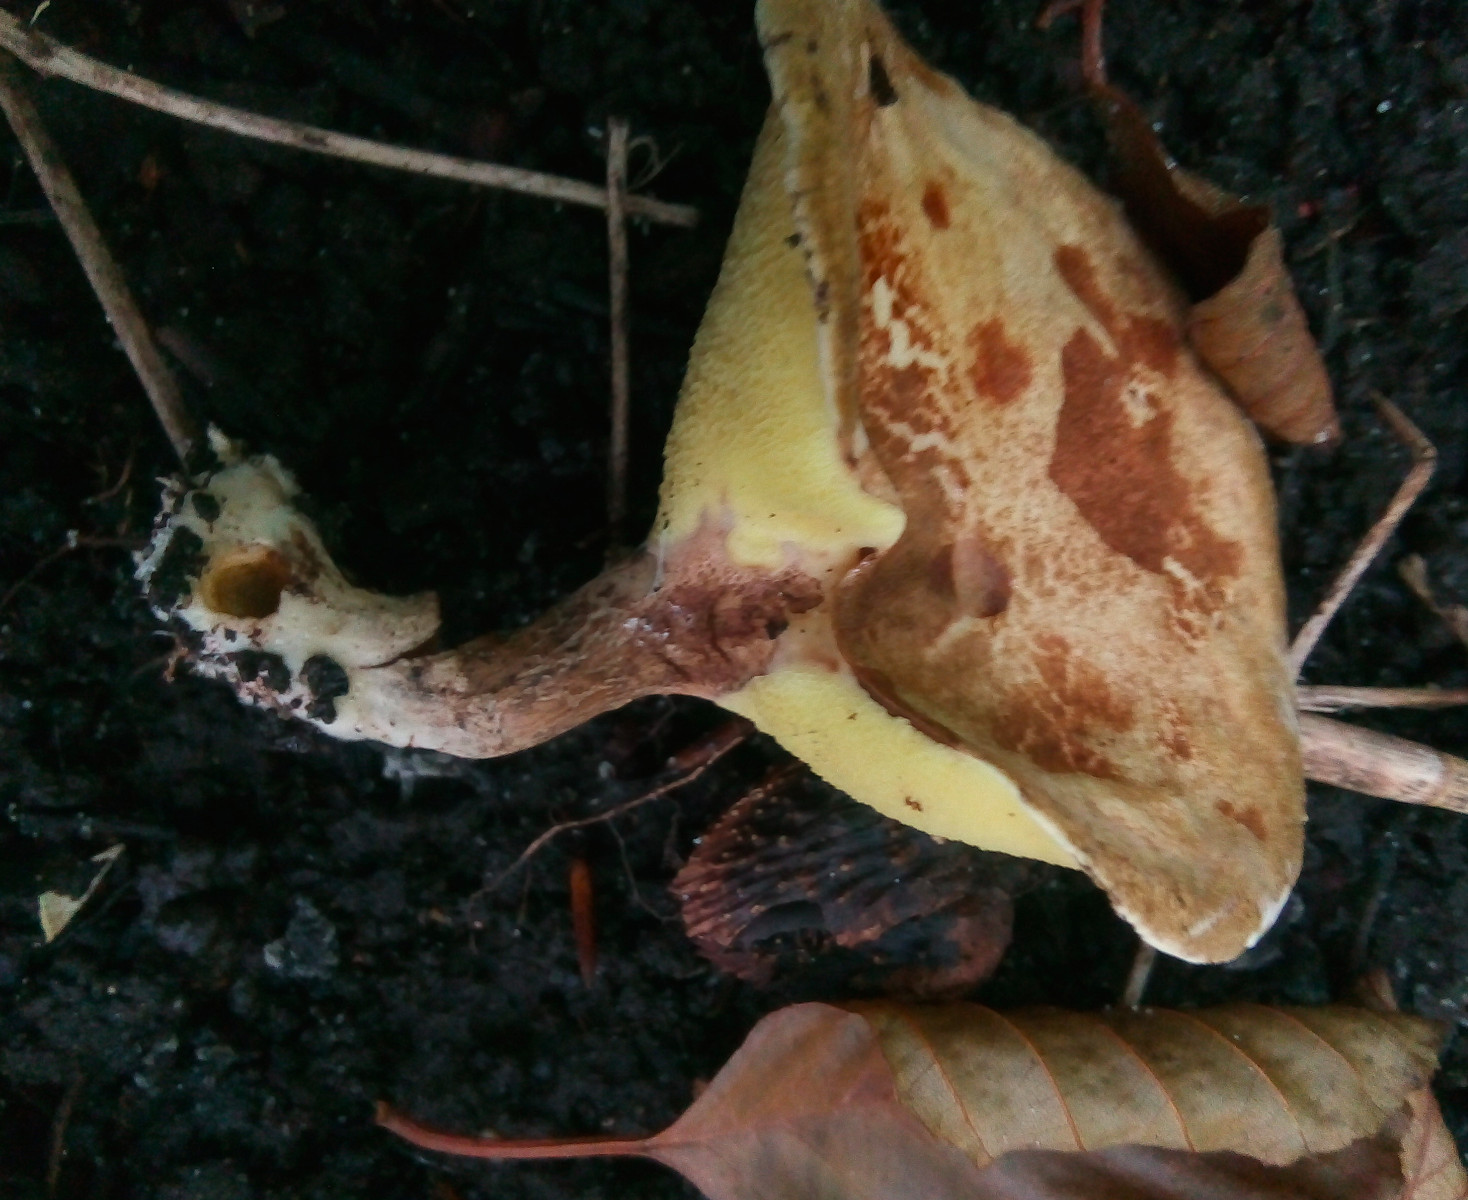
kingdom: Fungi
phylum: Basidiomycota
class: Agaricomycetes
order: Boletales
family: Paxillaceae
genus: Gyrodon
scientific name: Gyrodon lividus
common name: ellerørhat
